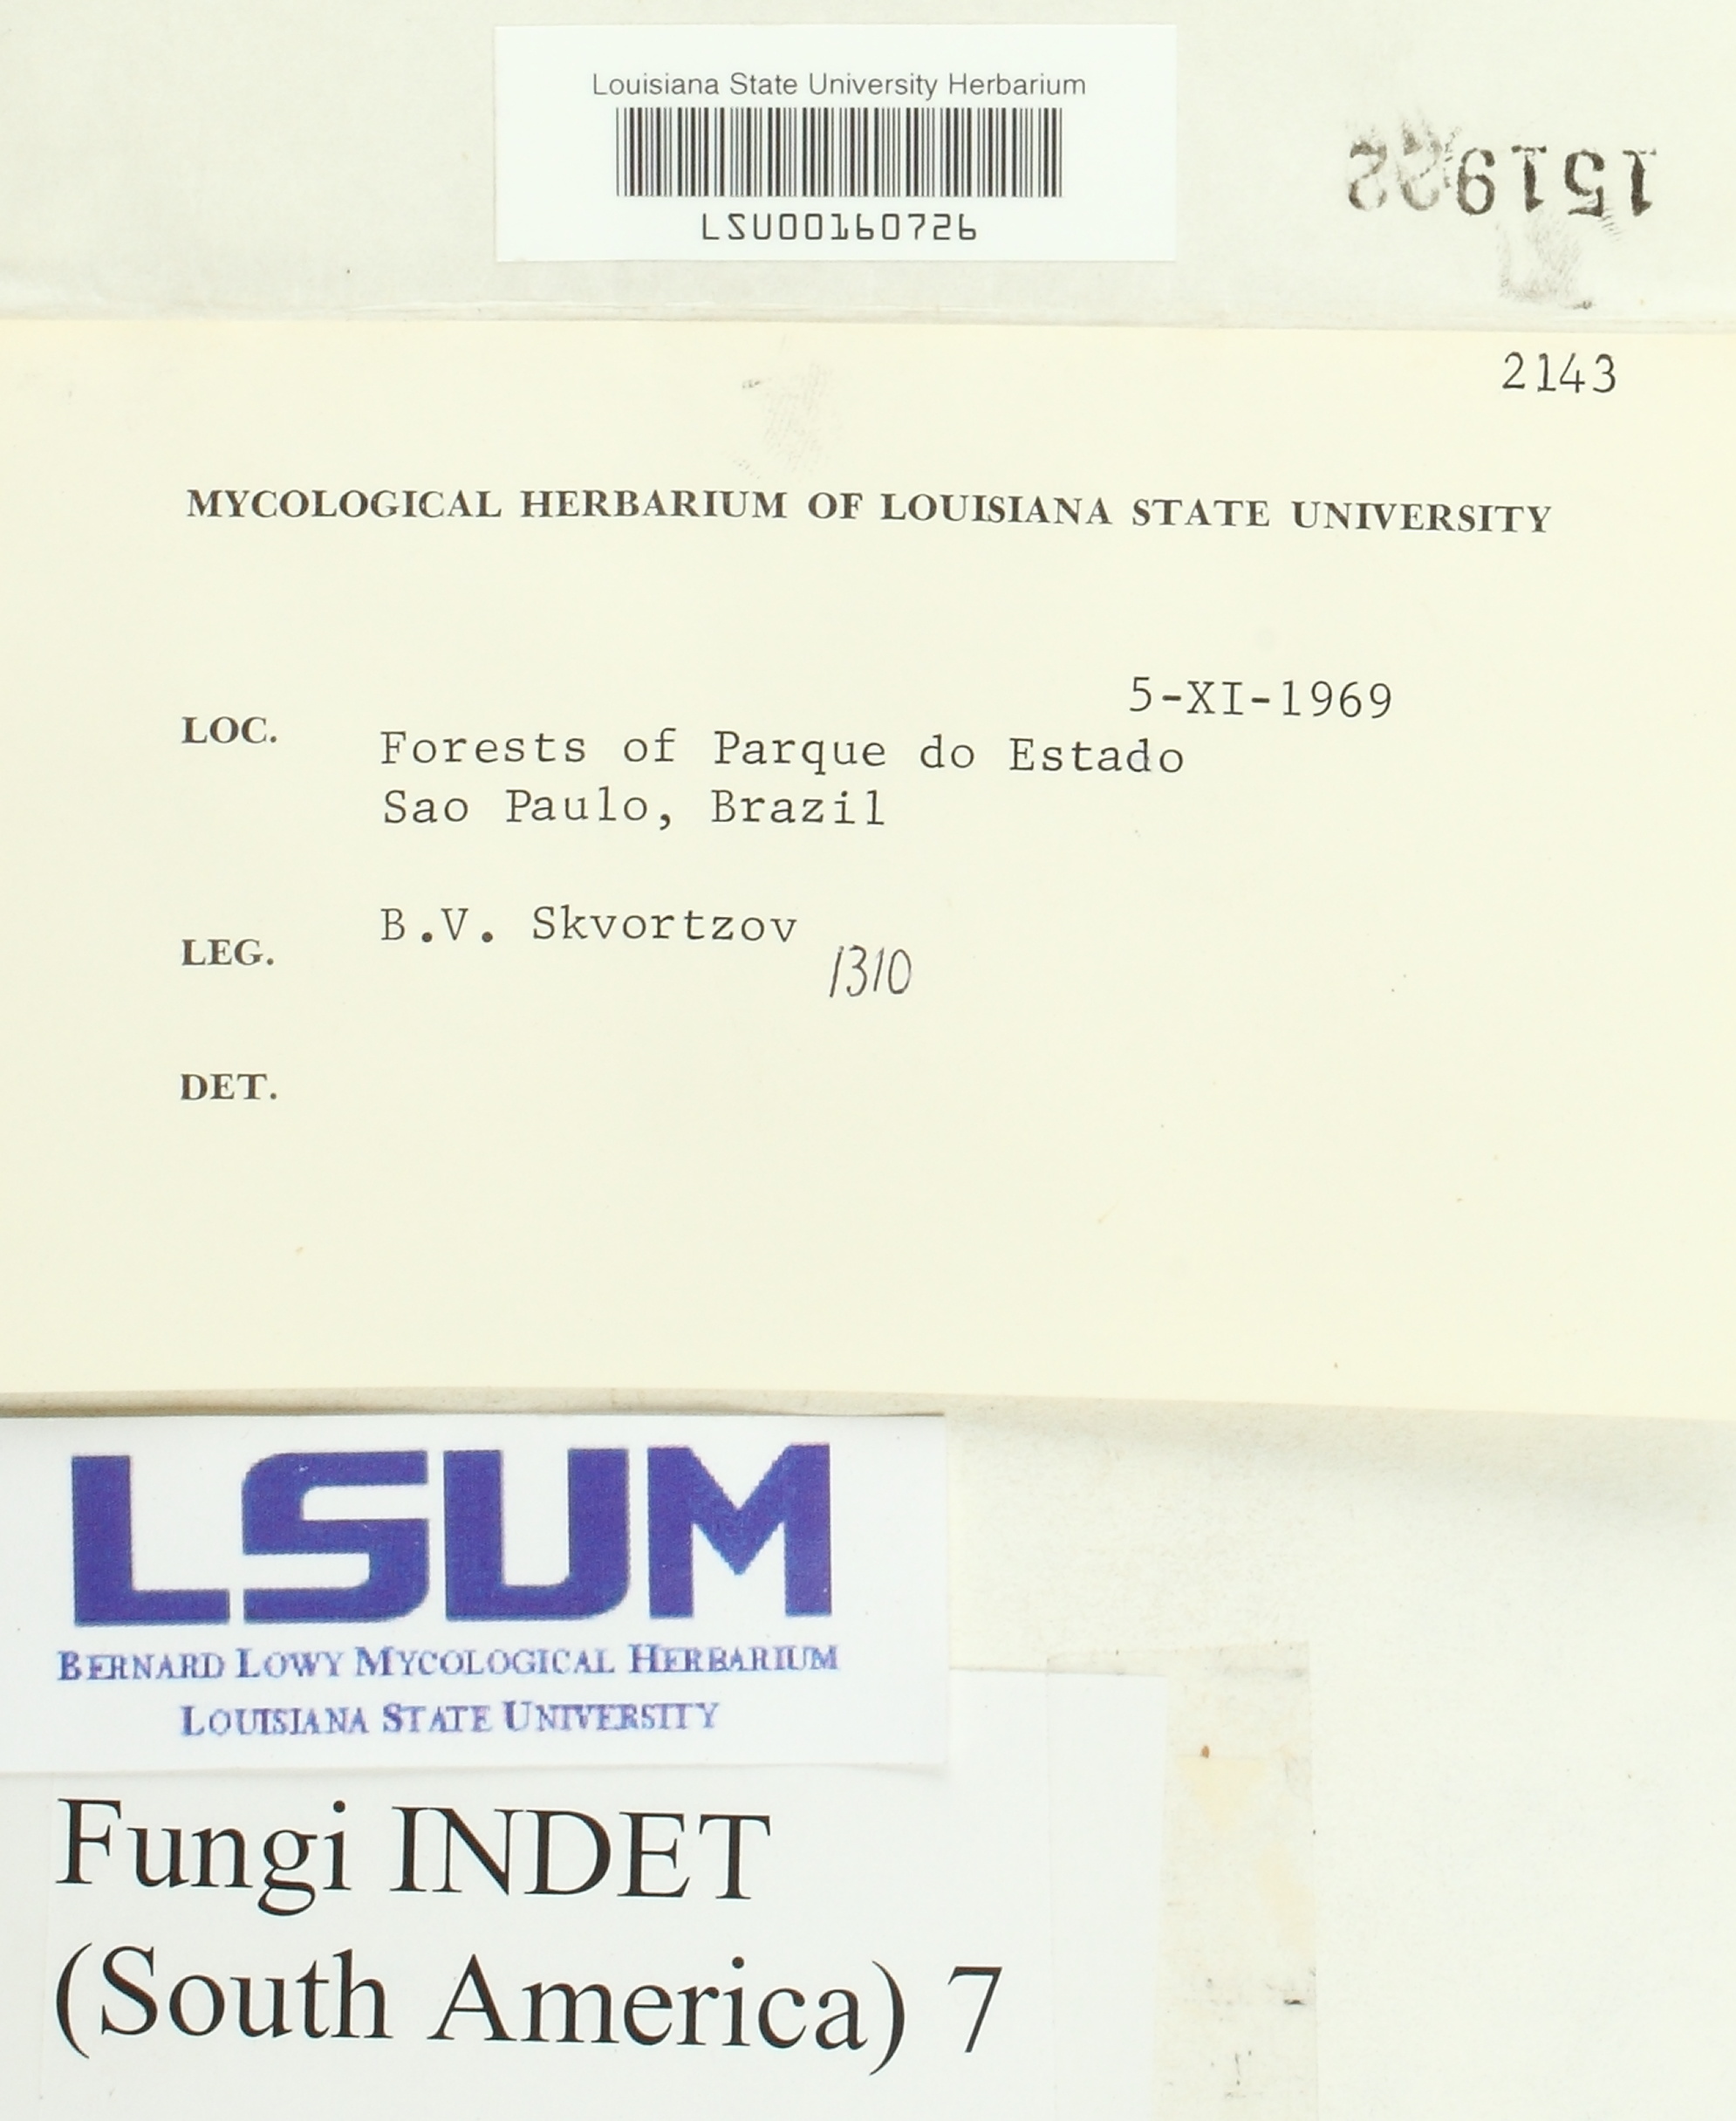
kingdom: Fungi
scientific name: Fungi
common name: Fungi
